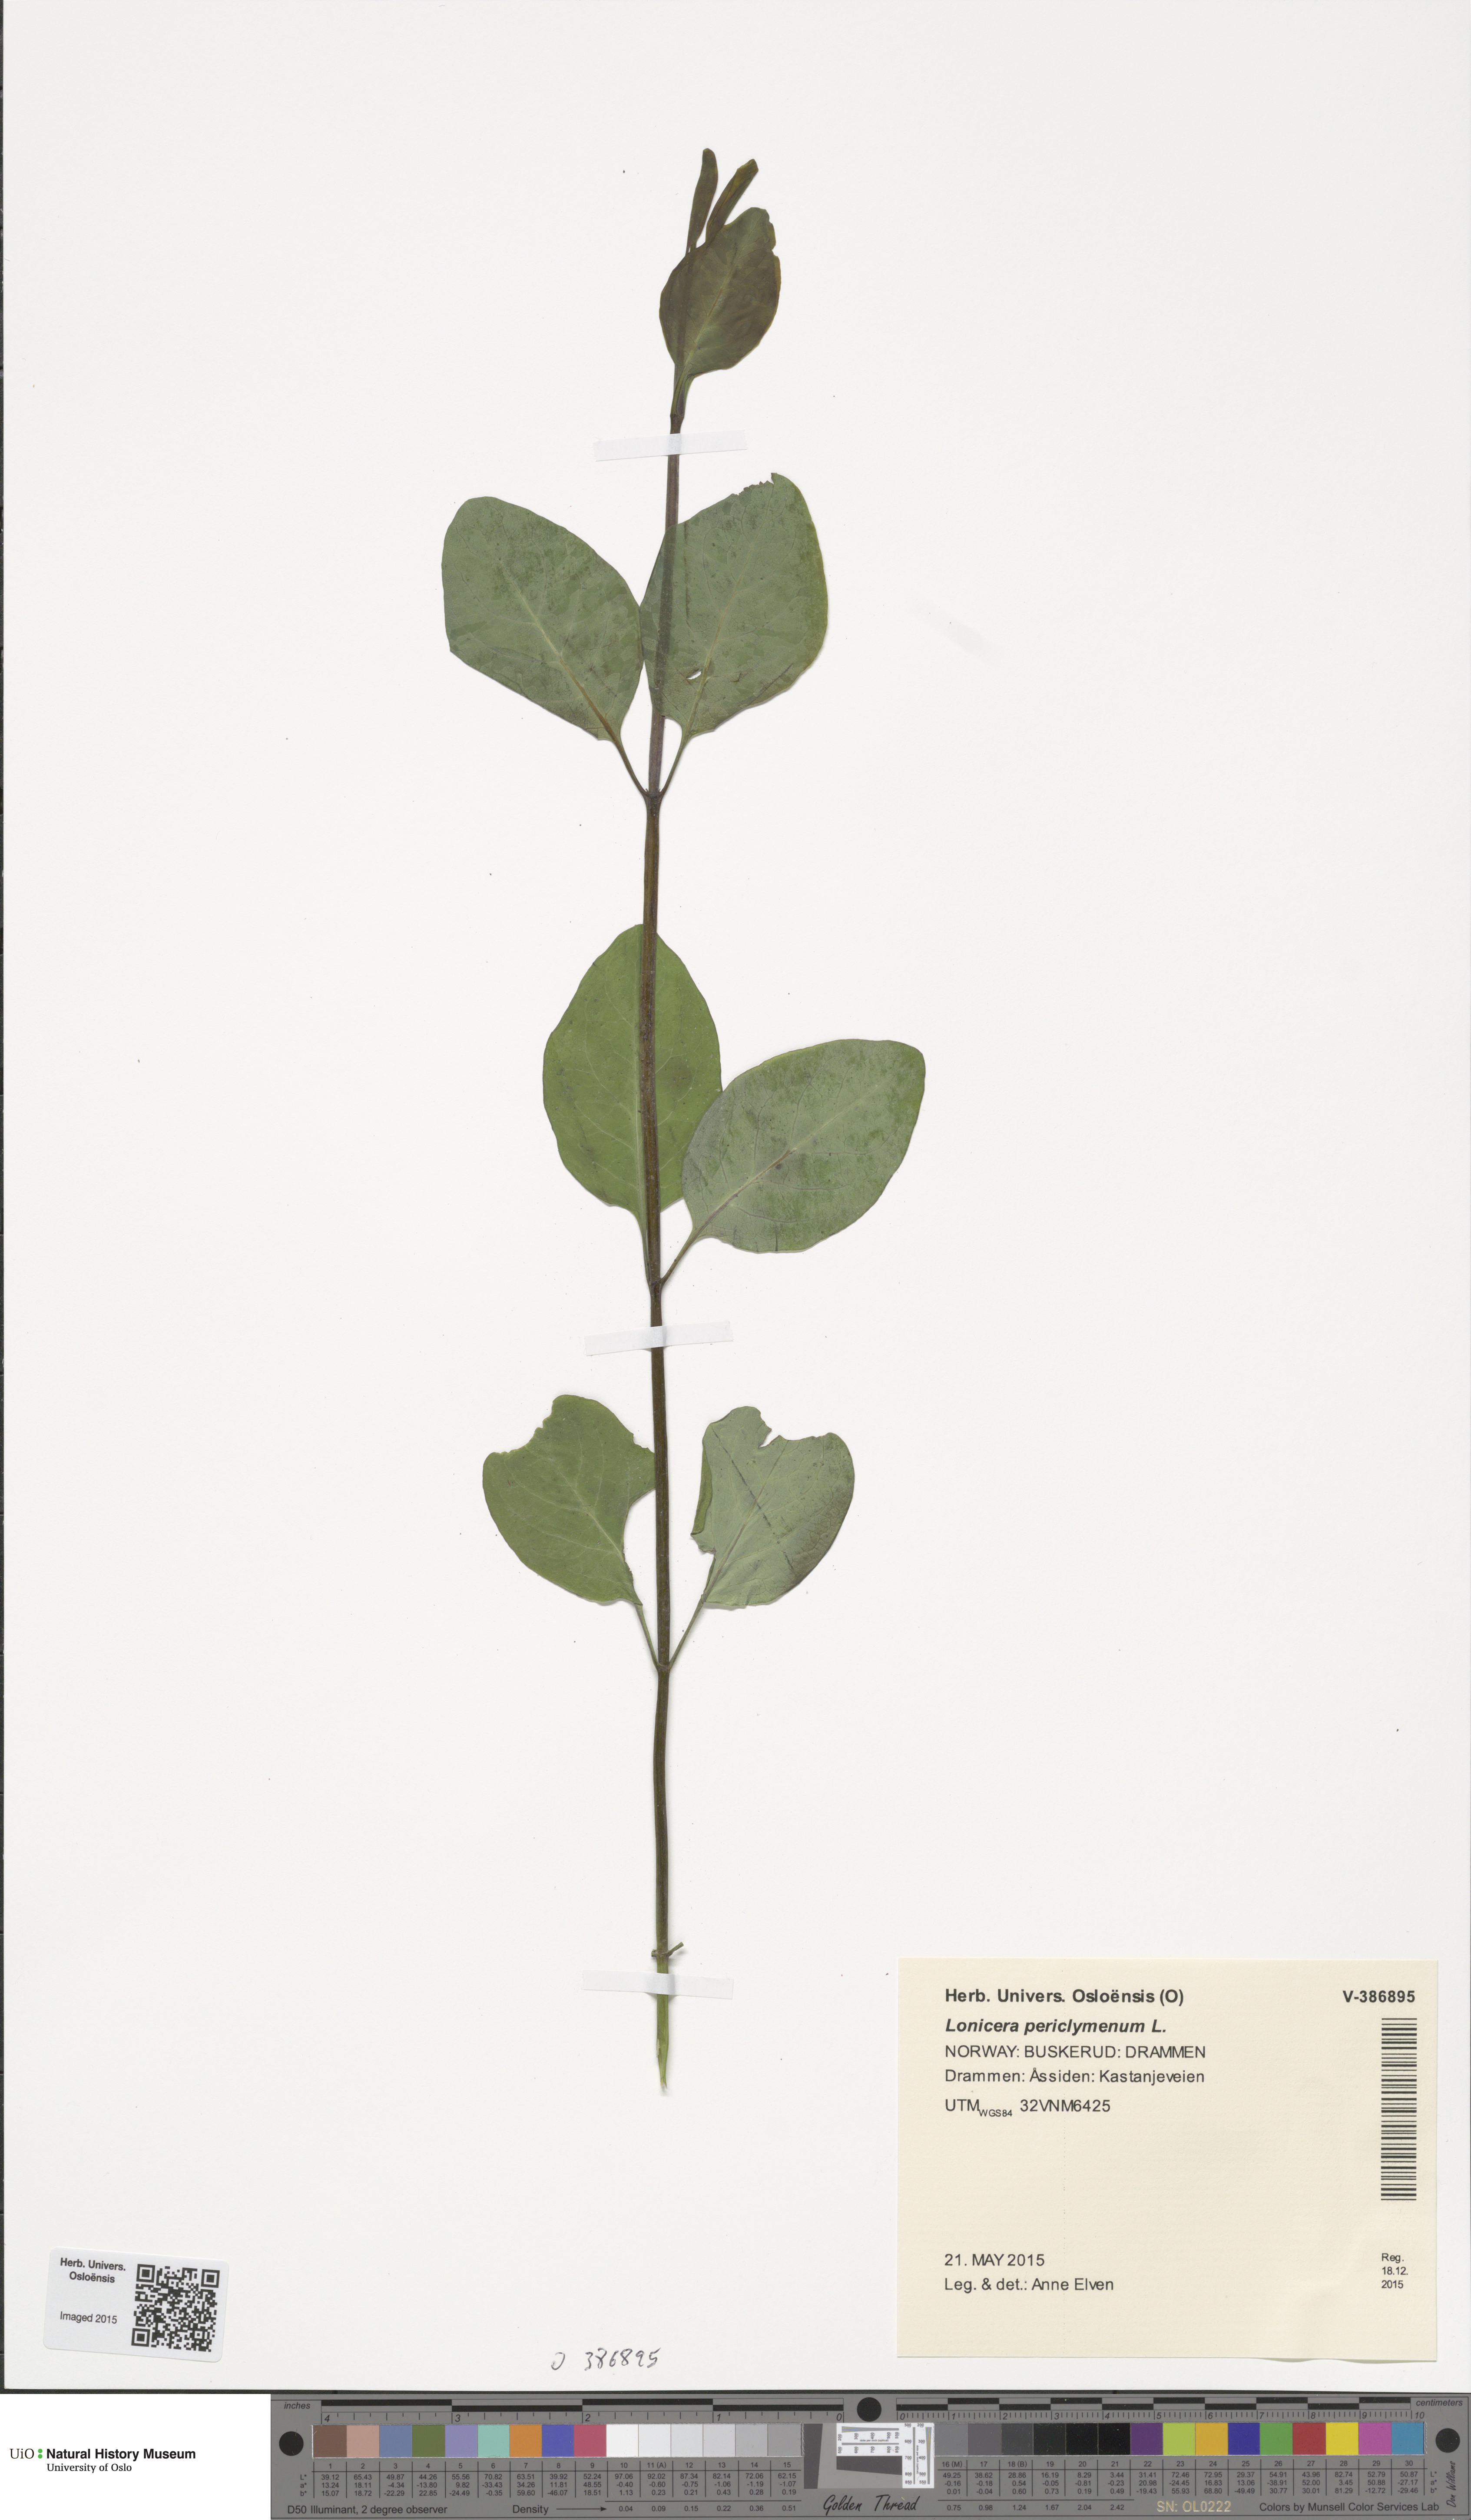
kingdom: Plantae
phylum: Tracheophyta
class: Magnoliopsida
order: Dipsacales
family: Caprifoliaceae
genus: Lonicera
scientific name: Lonicera periclymenum
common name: European honeysuckle
